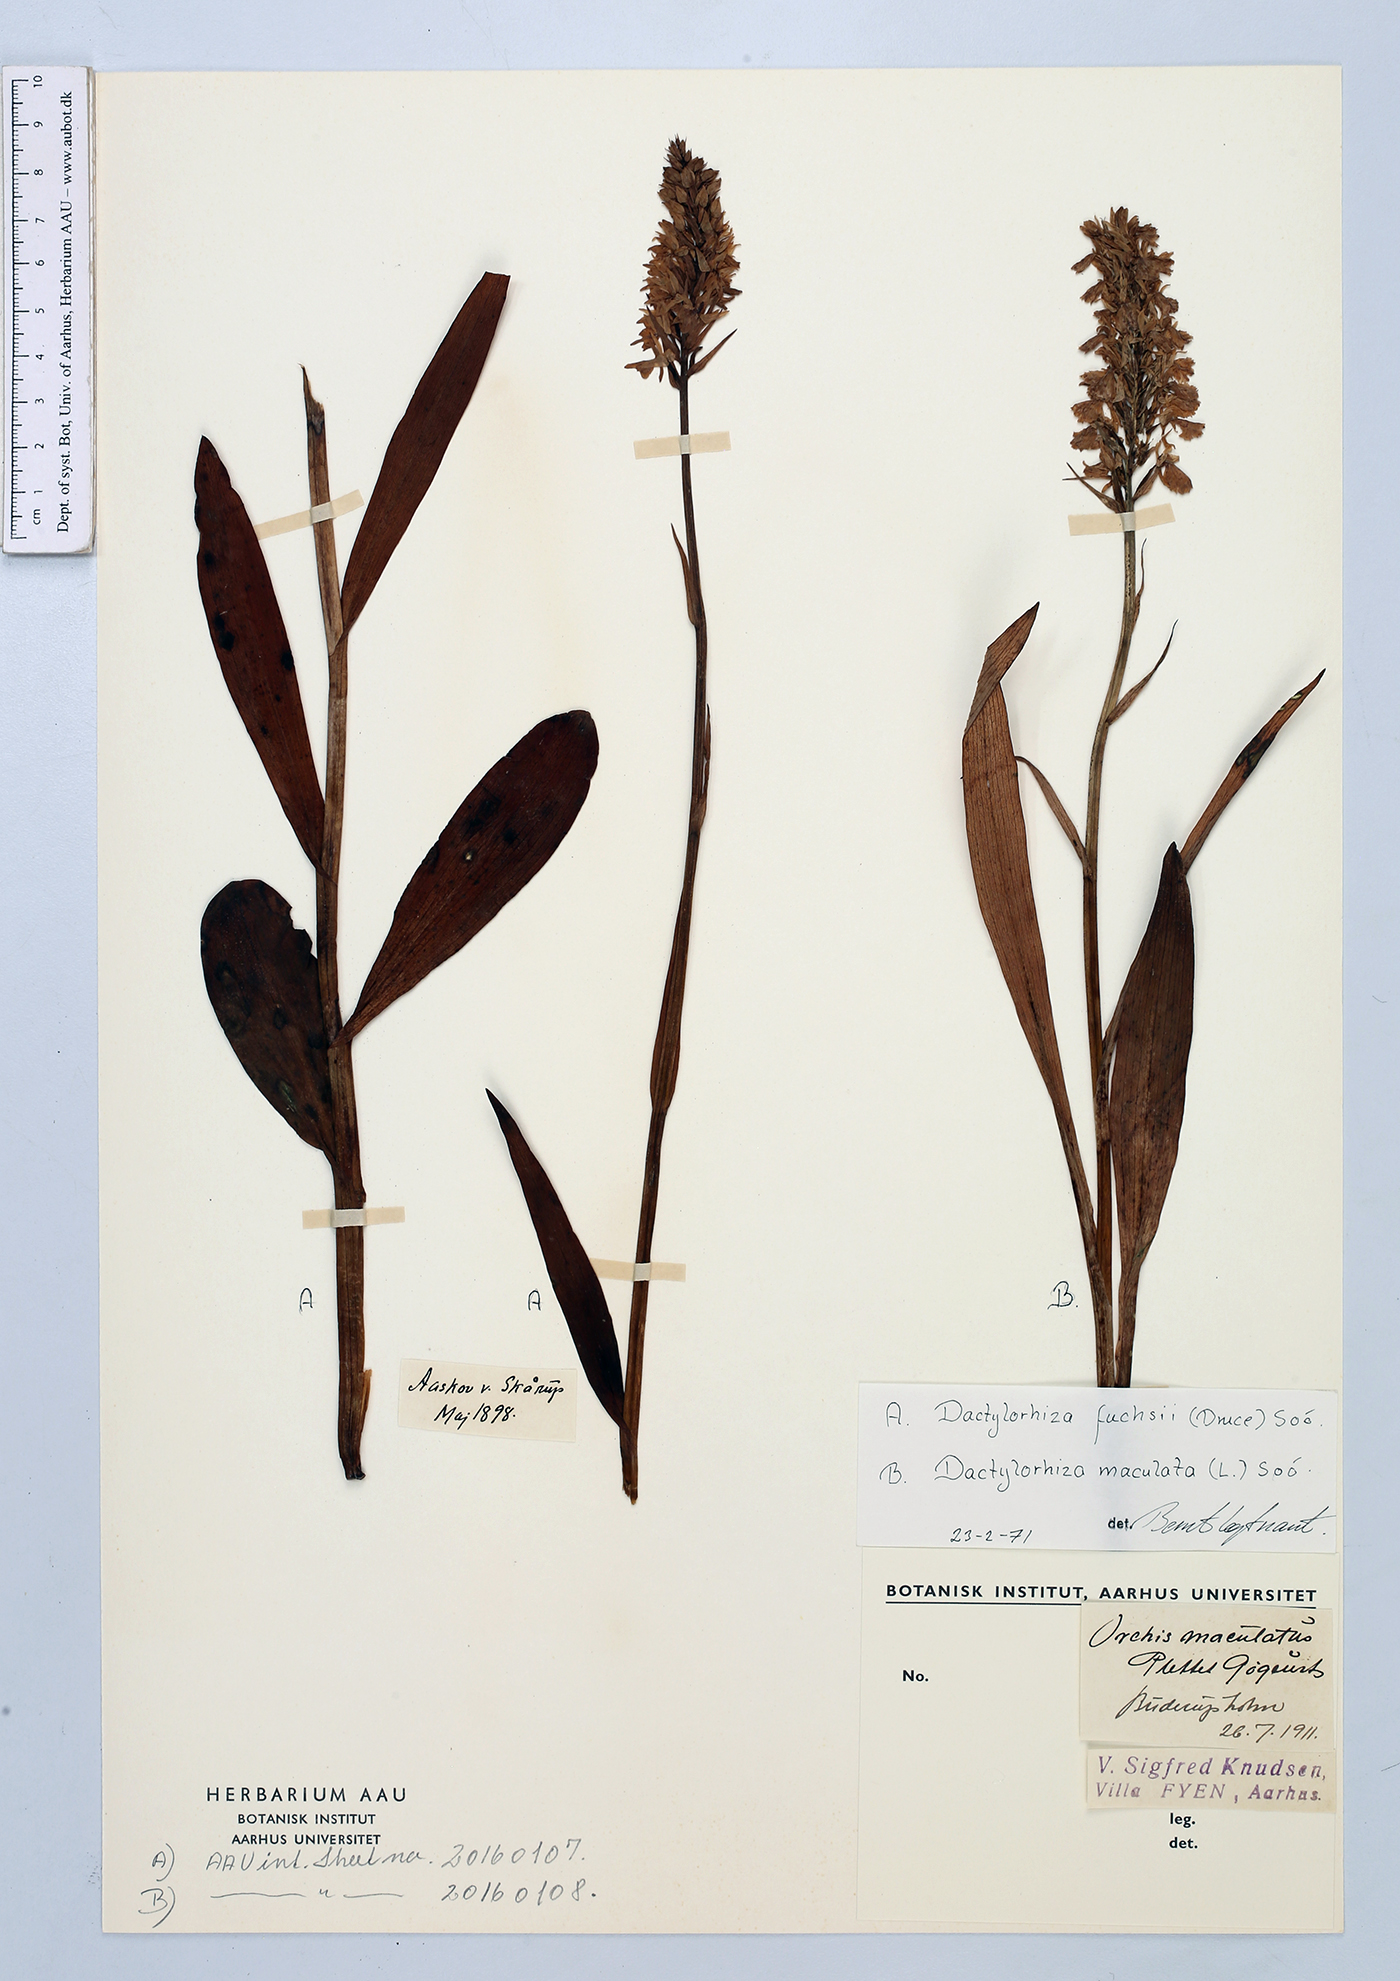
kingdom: Plantae
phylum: Tracheophyta
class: Liliopsida
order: Asparagales
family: Orchidaceae
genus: Dactylorhiza
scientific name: Dactylorhiza maculata
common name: Heath spotted-orchid
